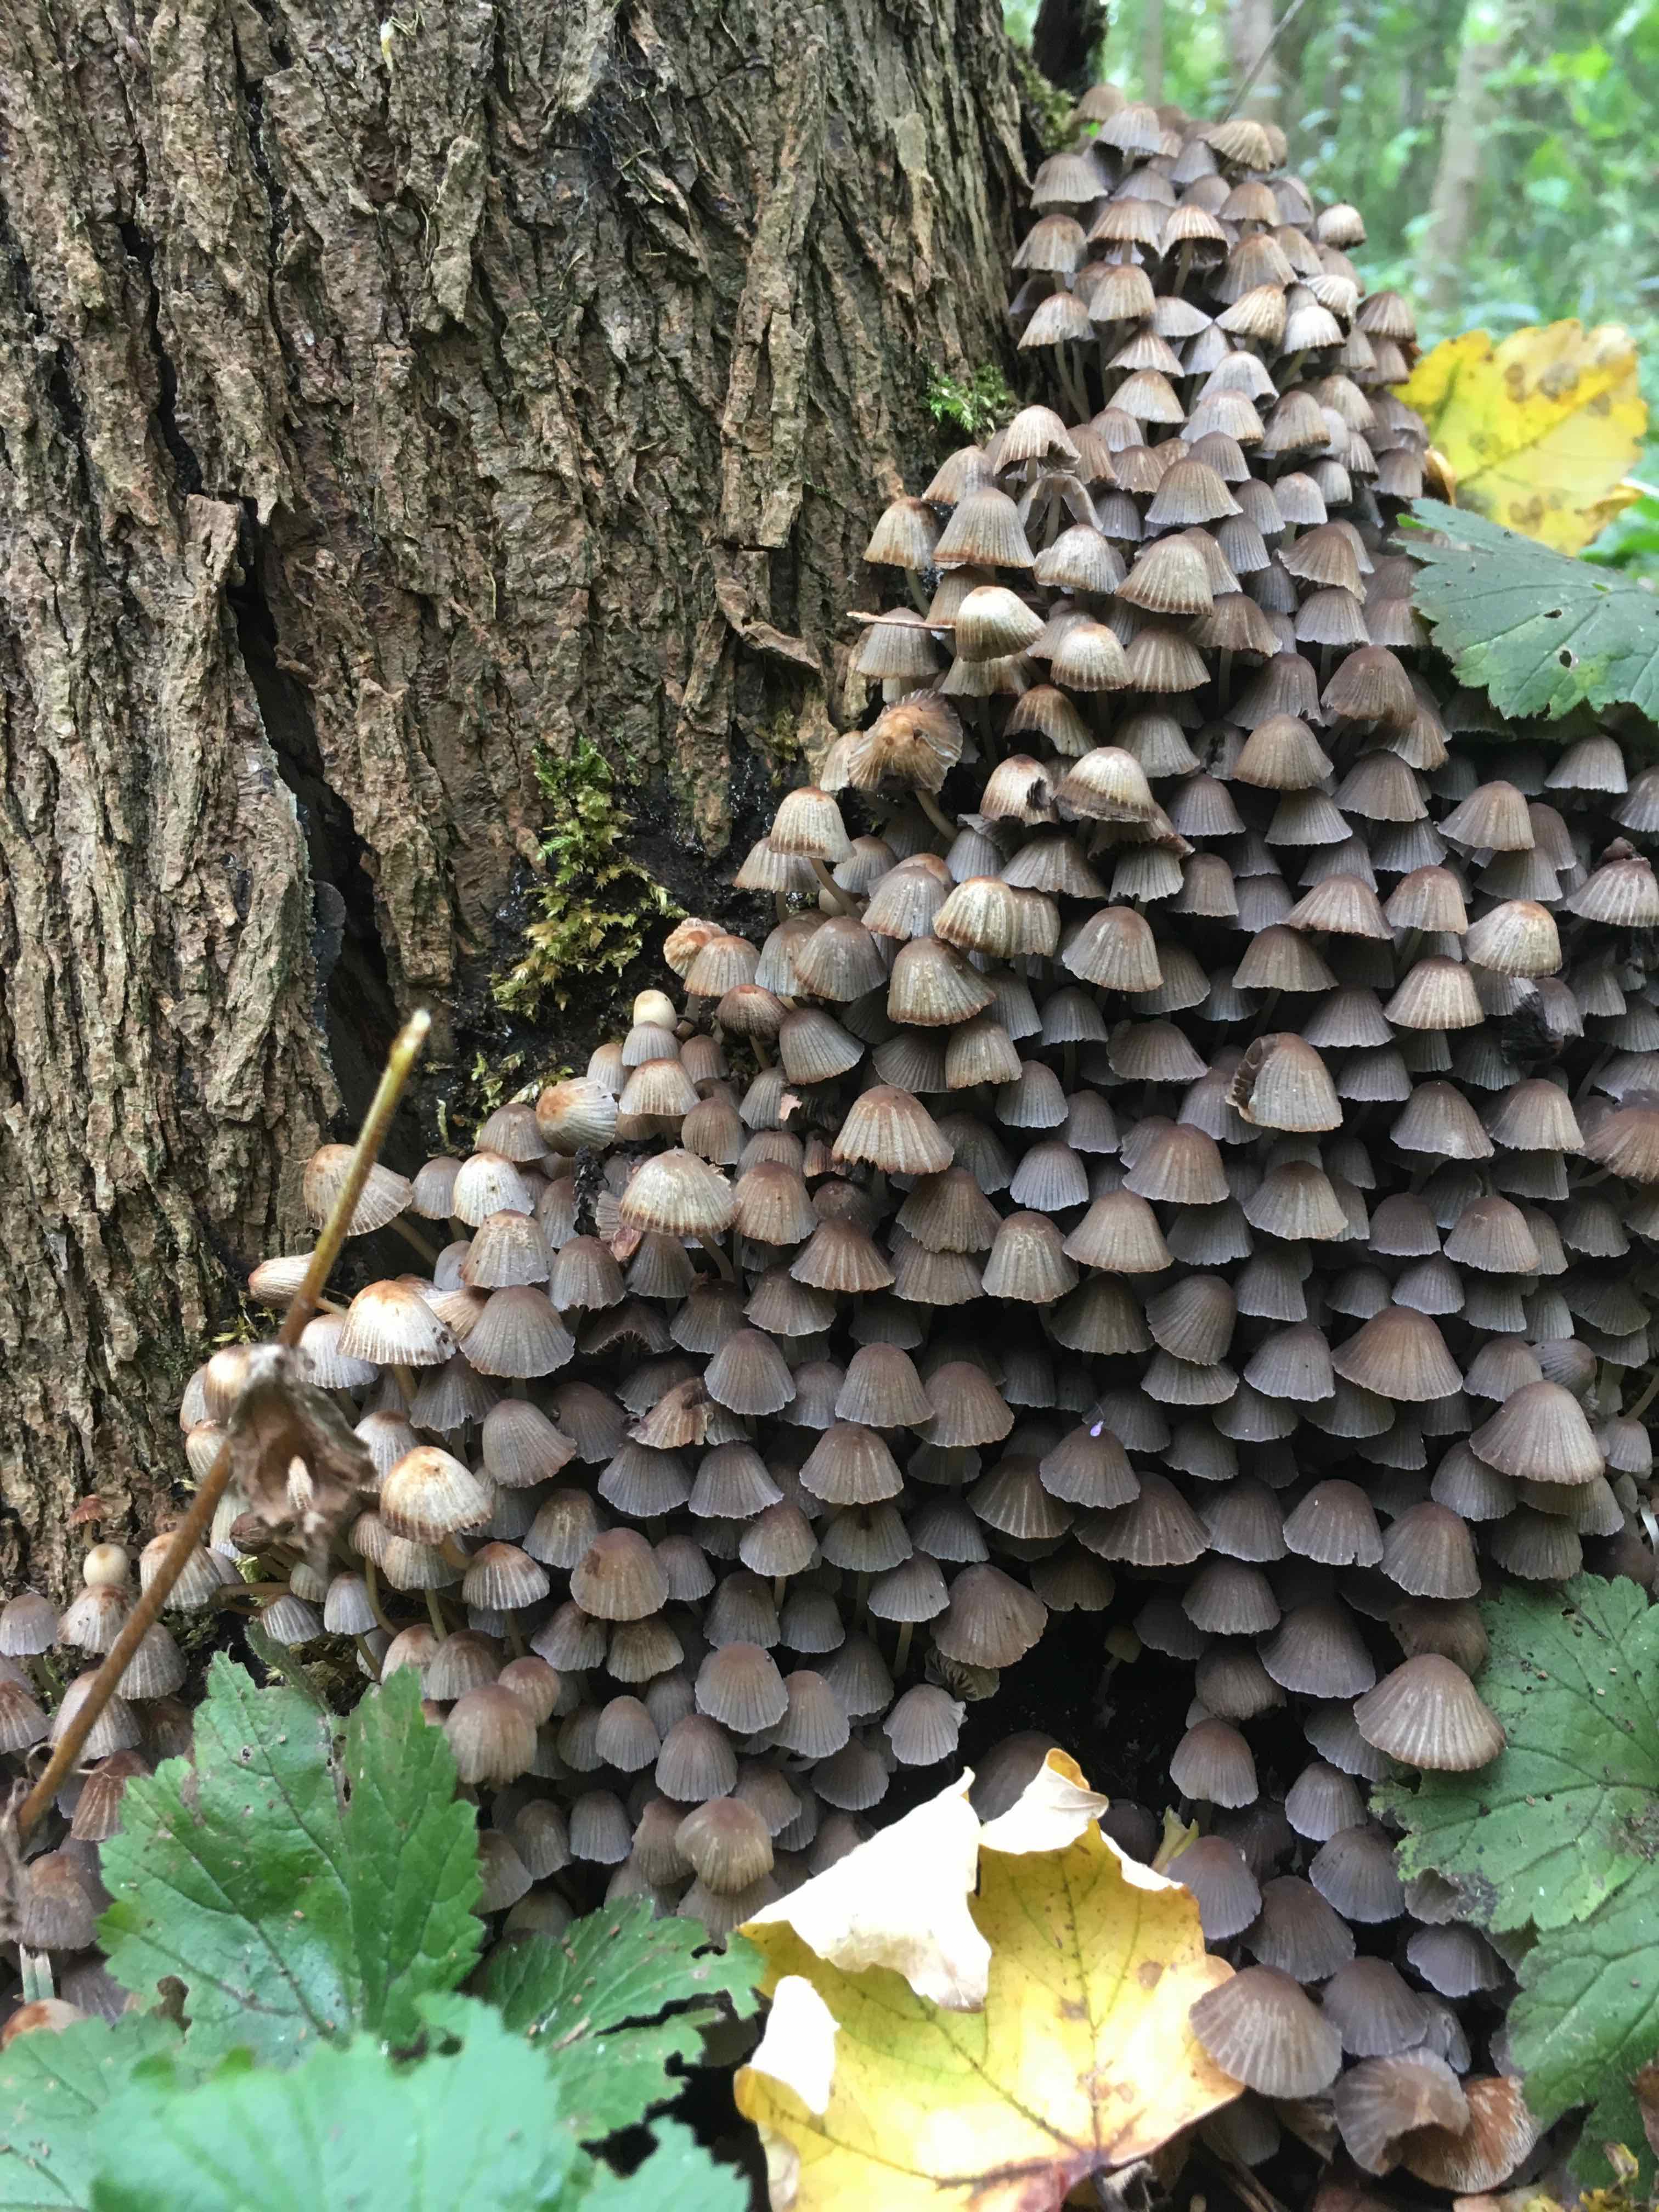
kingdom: Fungi
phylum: Basidiomycota
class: Agaricomycetes
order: Agaricales
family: Psathyrellaceae
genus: Coprinellus
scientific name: Coprinellus disseminatus
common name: bredsået blækhat
